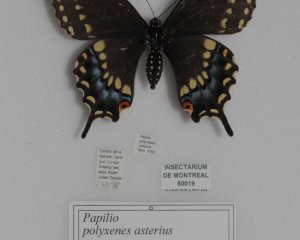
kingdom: Animalia
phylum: Arthropoda
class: Insecta
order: Lepidoptera
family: Papilionidae
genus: Papilio
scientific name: Papilio polyxenes
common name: Black Swallowtail
